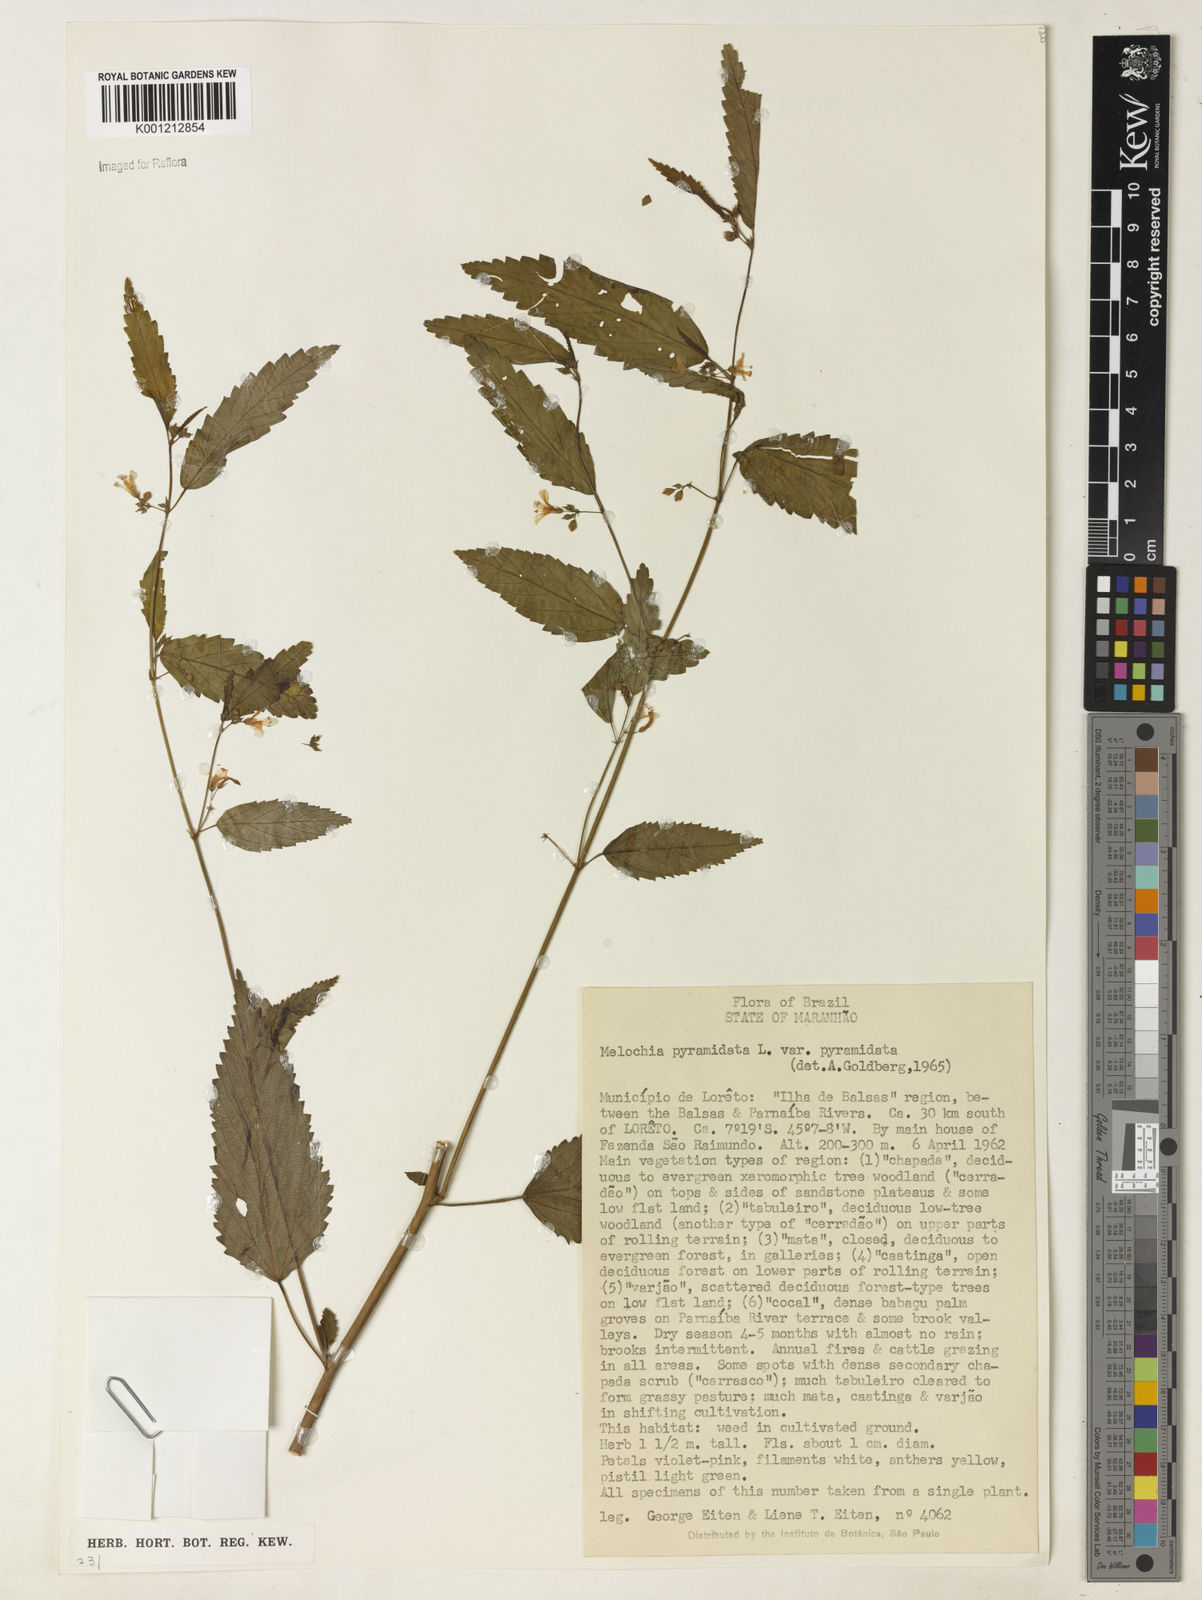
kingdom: Plantae
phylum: Tracheophyta
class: Magnoliopsida
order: Malvales
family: Malvaceae
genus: Melochia
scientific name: Melochia pyramidata
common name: Pyramidflower
